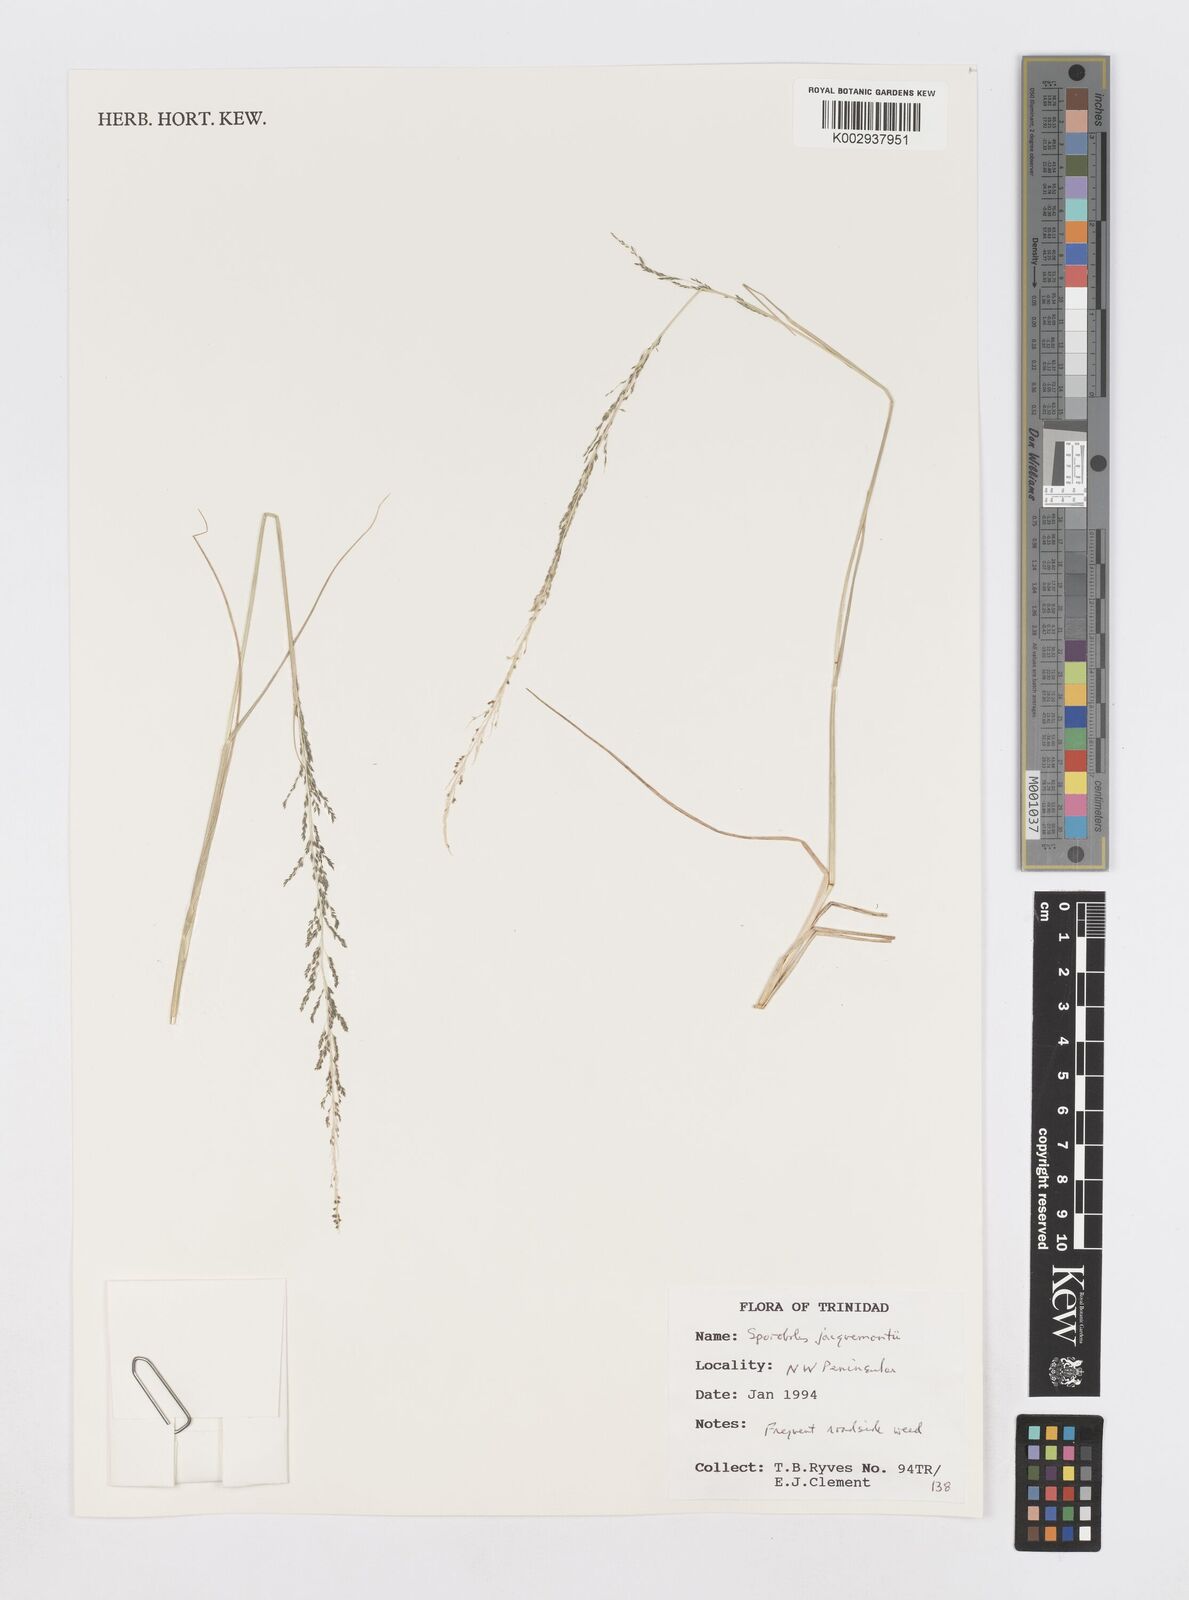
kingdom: Plantae
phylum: Tracheophyta
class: Liliopsida
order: Poales
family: Poaceae
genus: Sporobolus
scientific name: Sporobolus pyramidalis
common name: West indian dropseed
